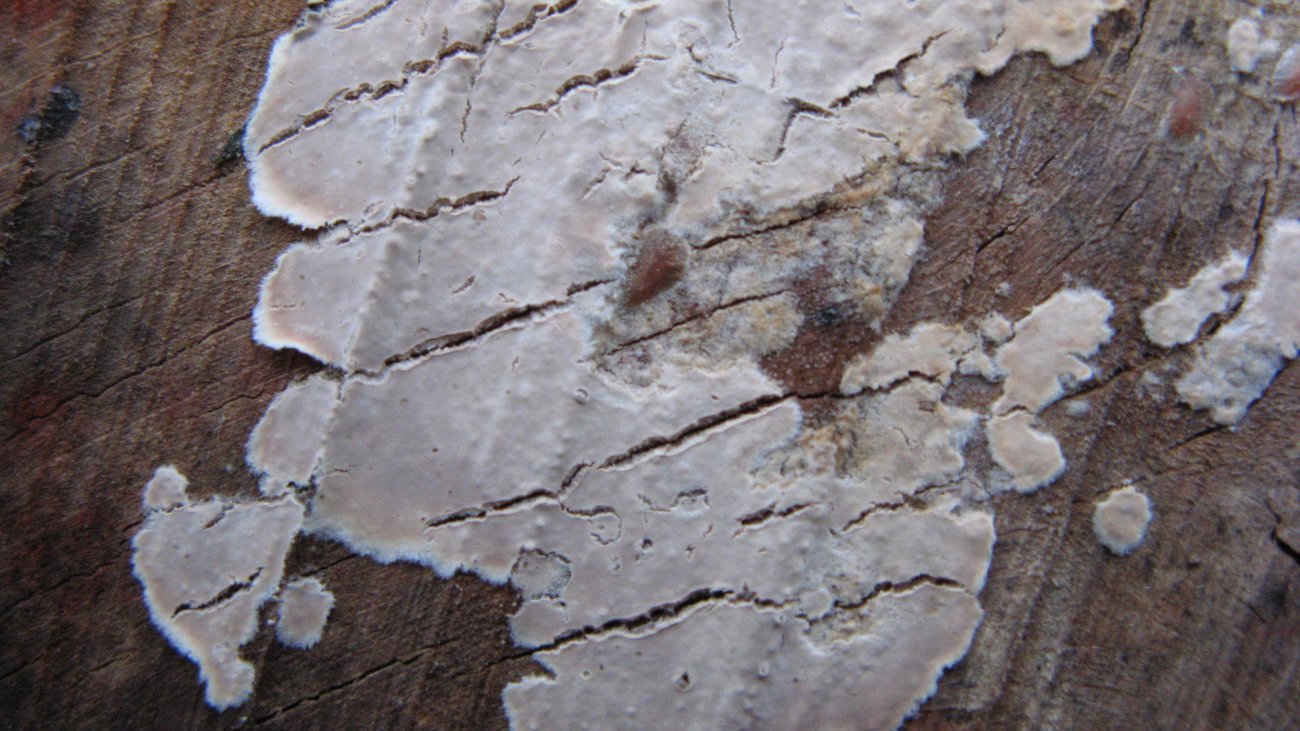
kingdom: Fungi
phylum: Basidiomycota
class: Agaricomycetes
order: Agaricales
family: Physalacriaceae
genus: Cylindrobasidium
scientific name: Cylindrobasidium evolvens
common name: sprækkehinde
